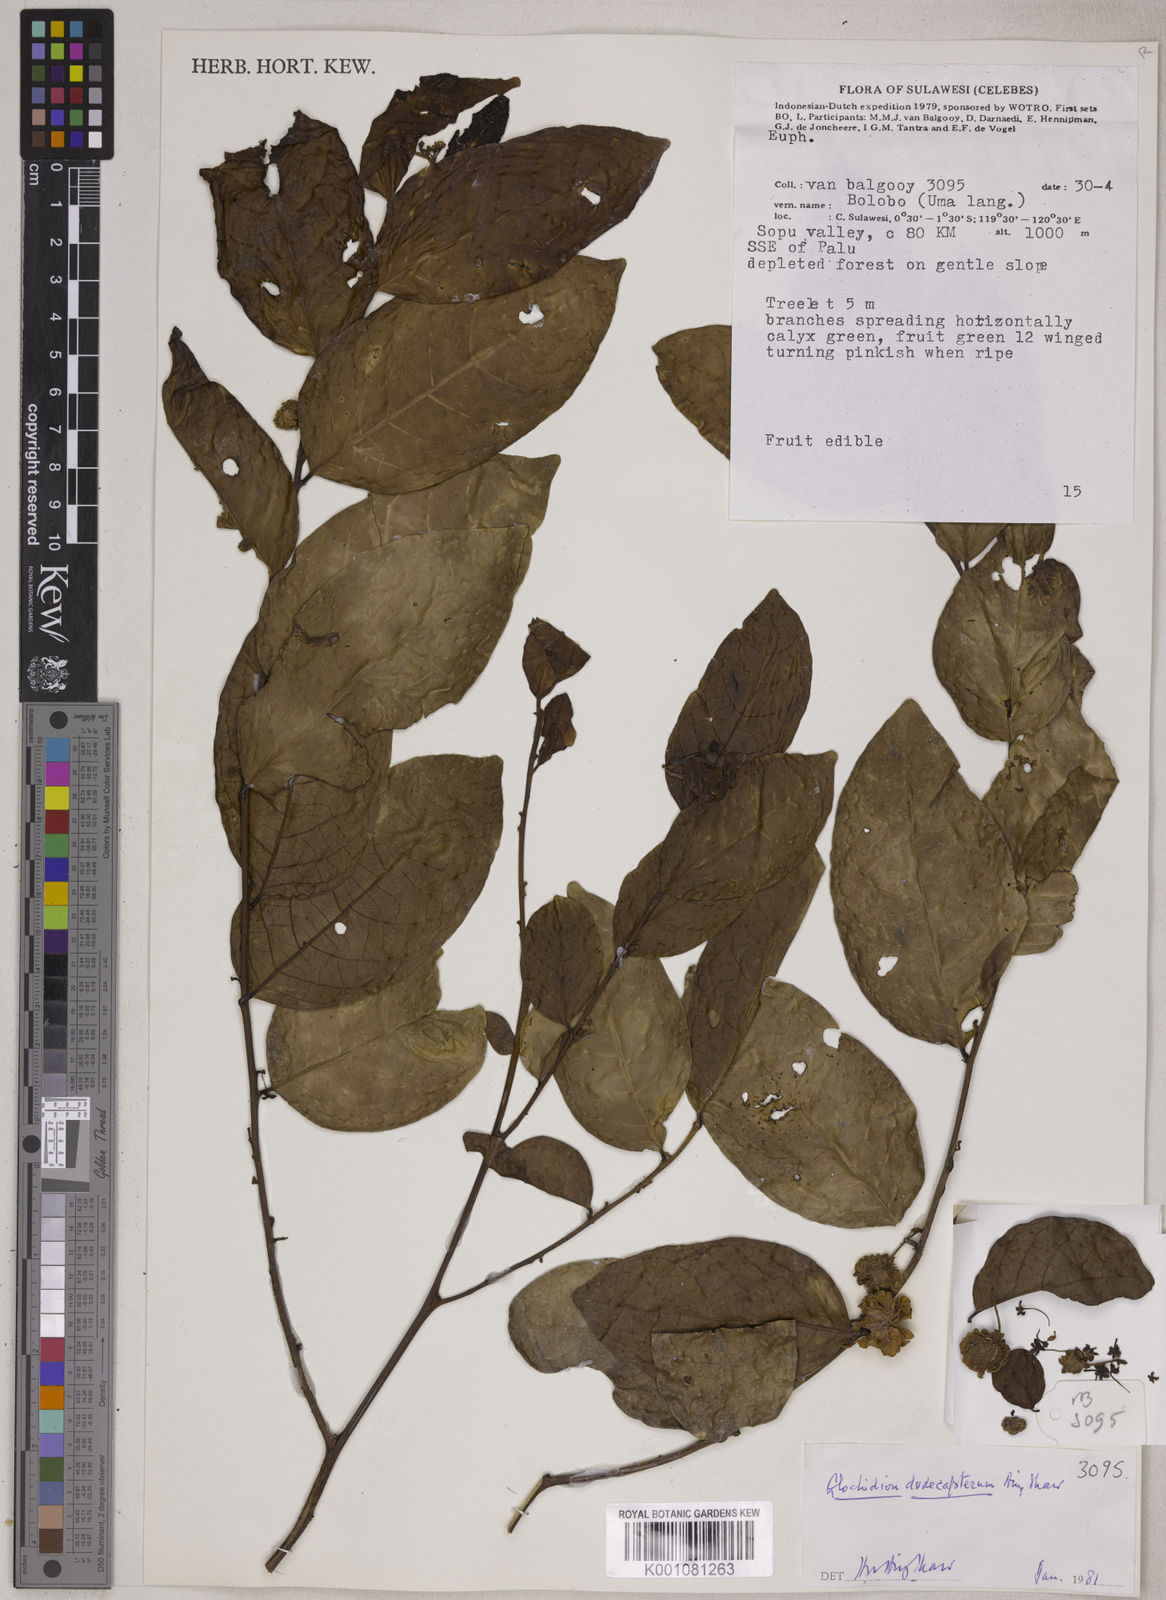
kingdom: Plantae
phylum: Tracheophyta
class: Magnoliopsida
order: Malpighiales
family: Phyllanthaceae
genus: Glochidion
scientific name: Glochidion dodecapterum
